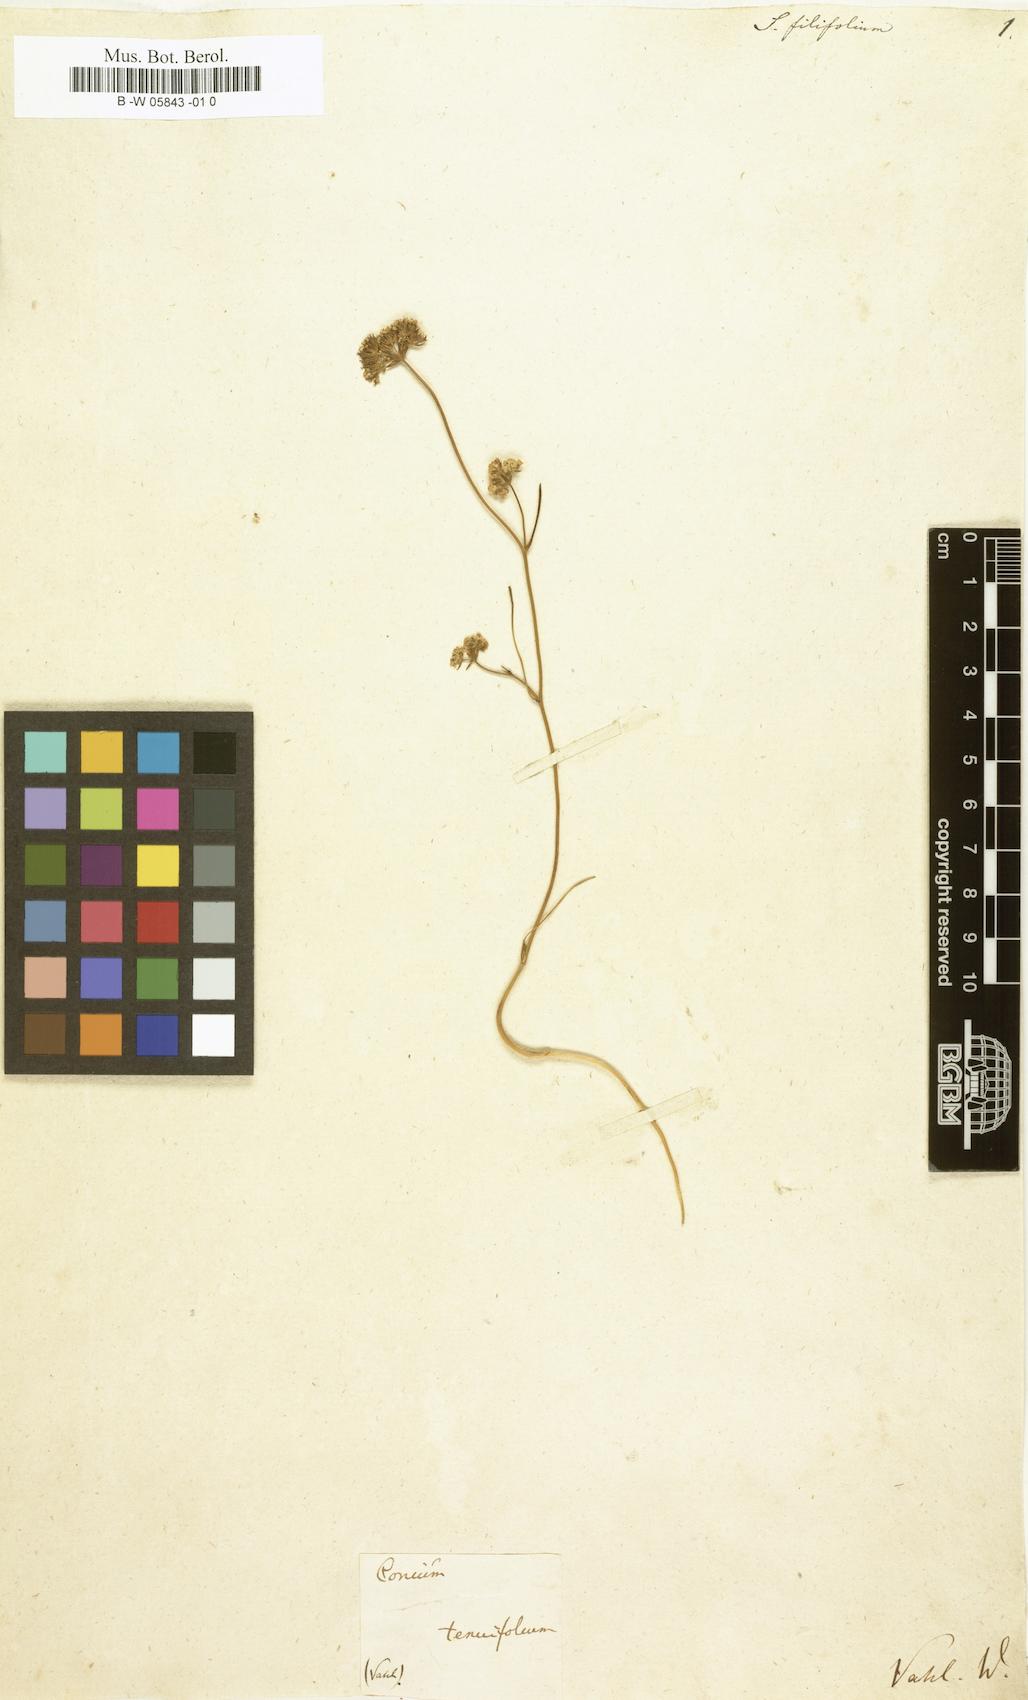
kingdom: Plantae
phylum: Tracheophyta
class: Magnoliopsida
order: Apiales
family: Apiaceae
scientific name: Apiaceae
